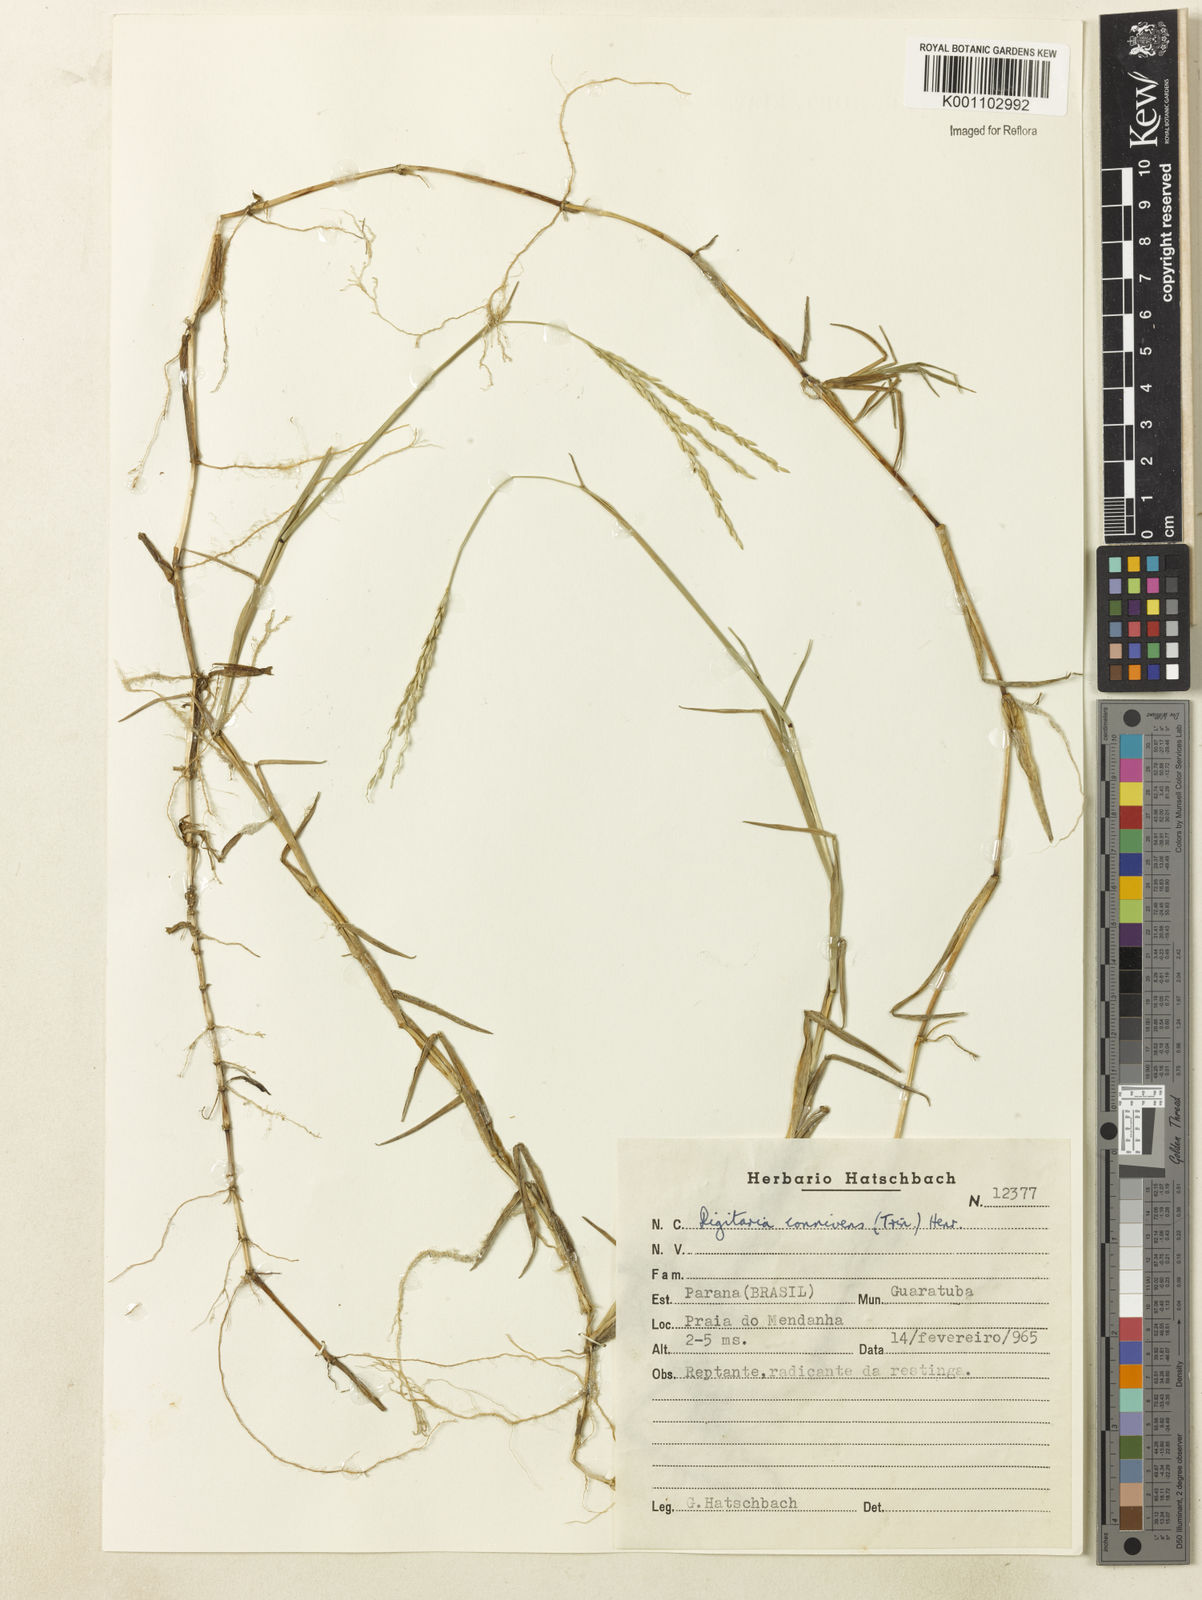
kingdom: Plantae
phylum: Tracheophyta
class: Liliopsida
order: Poales
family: Poaceae
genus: Digitaria
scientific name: Digitaria connivens
